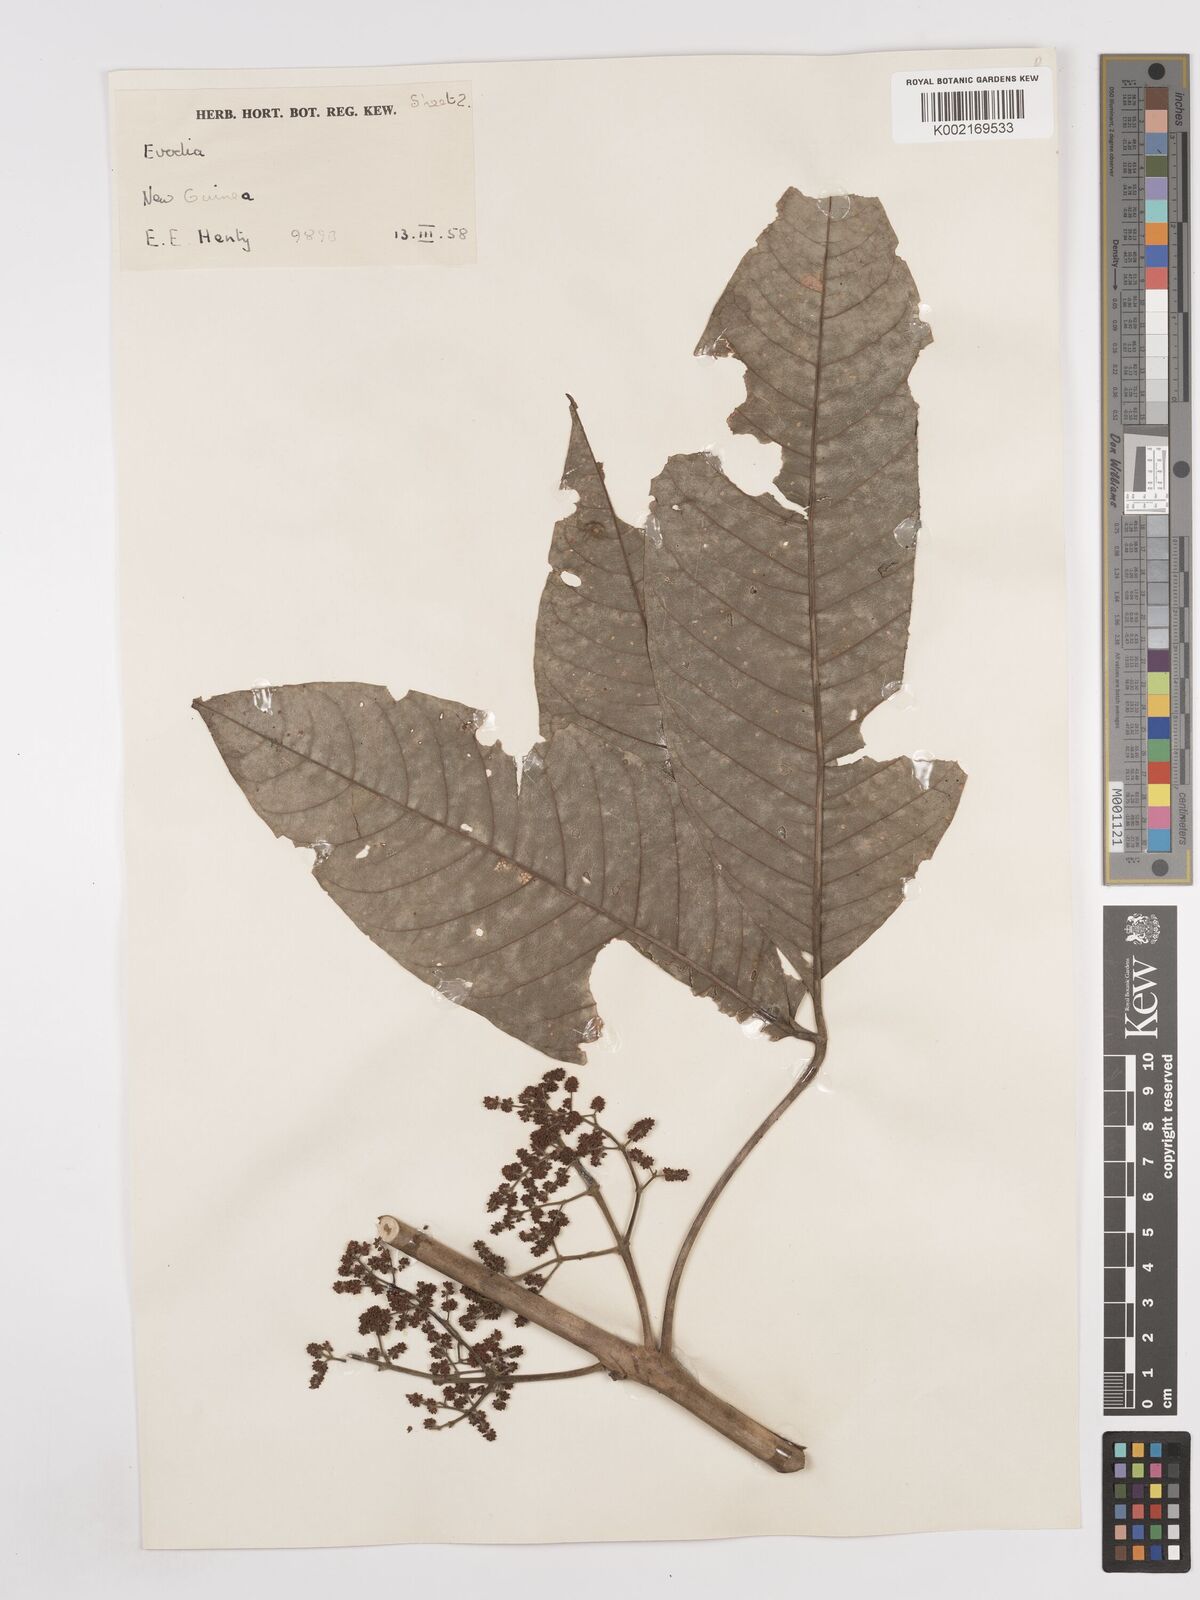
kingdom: Plantae
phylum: Tracheophyta
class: Magnoliopsida
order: Sapindales
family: Rutaceae
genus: Euodia
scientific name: Euodia
